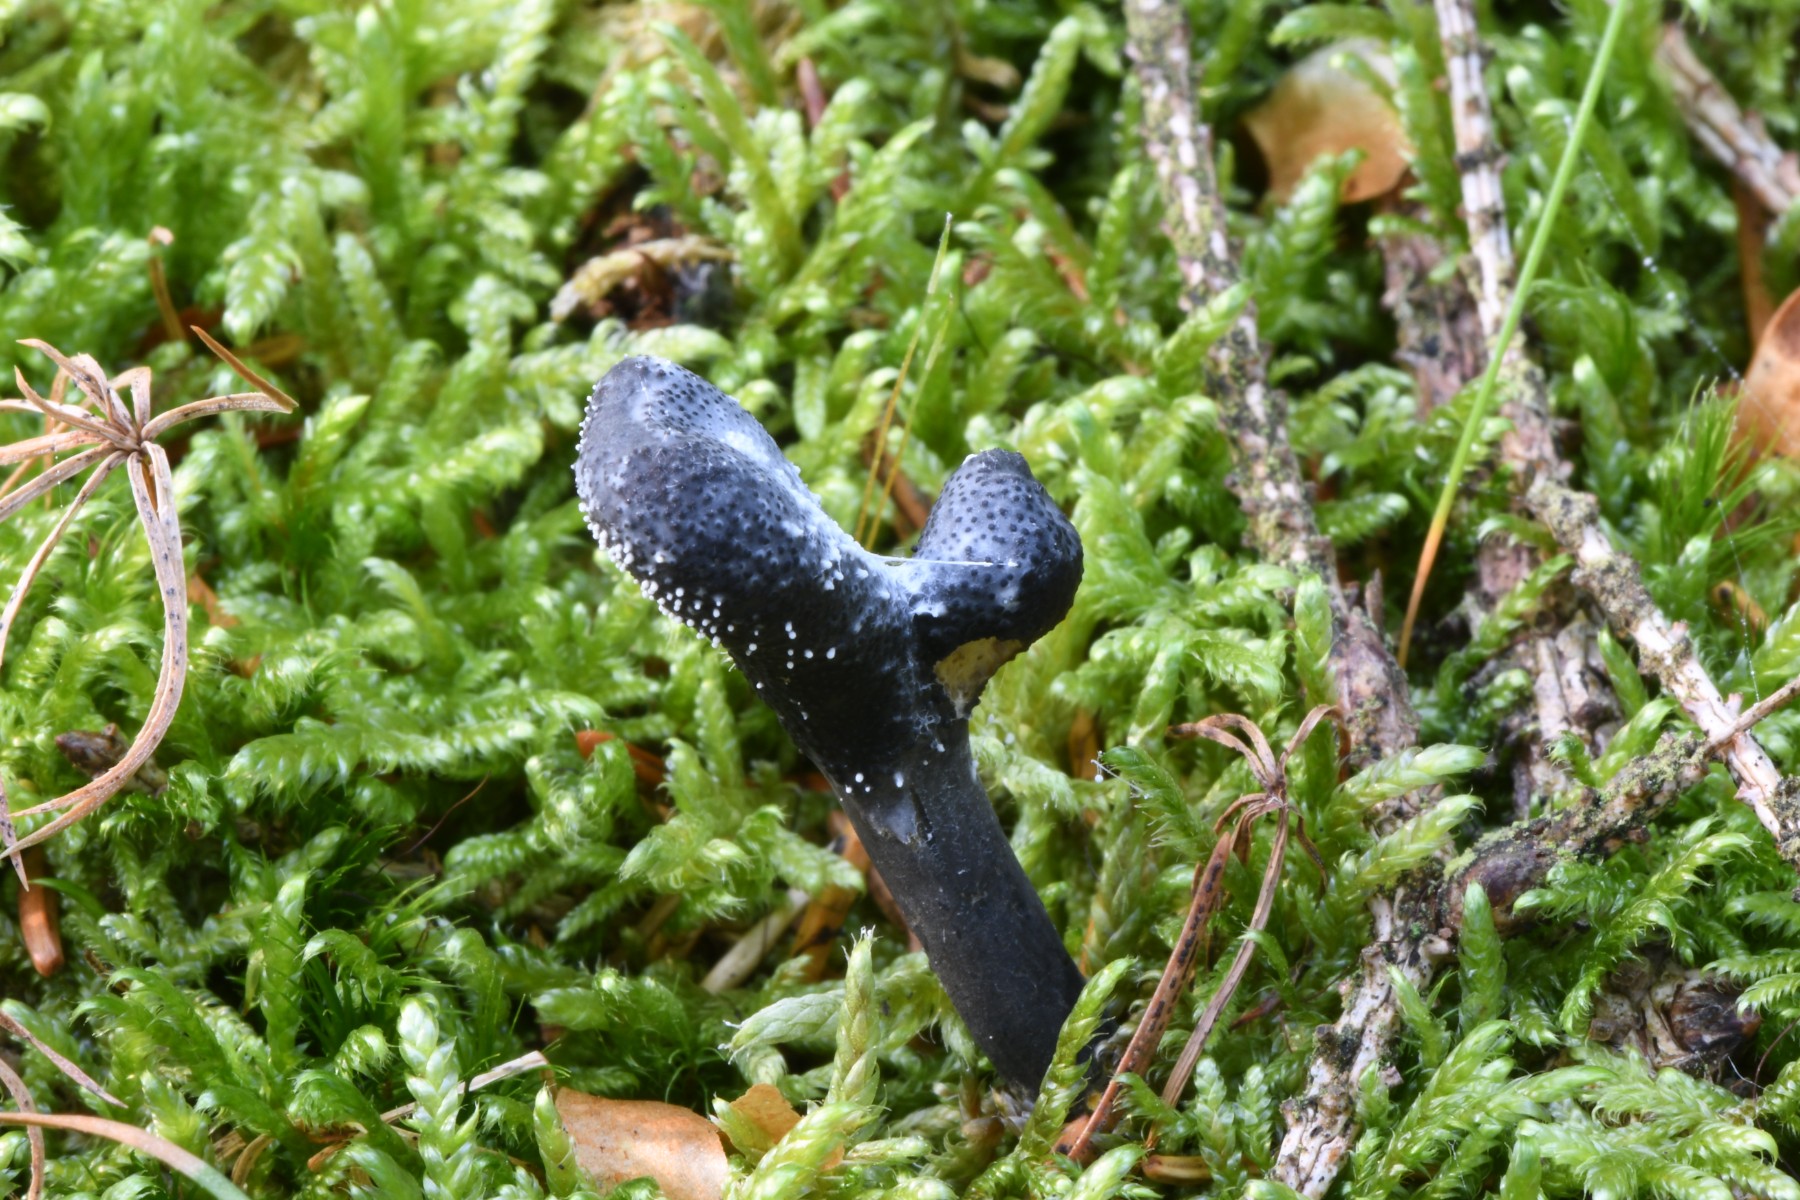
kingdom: Fungi
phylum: Ascomycota
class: Sordariomycetes
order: Hypocreales
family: Ophiocordycipitaceae
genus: Tolypocladium
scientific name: Tolypocladium ophioglossoides
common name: slank snyltekølle
